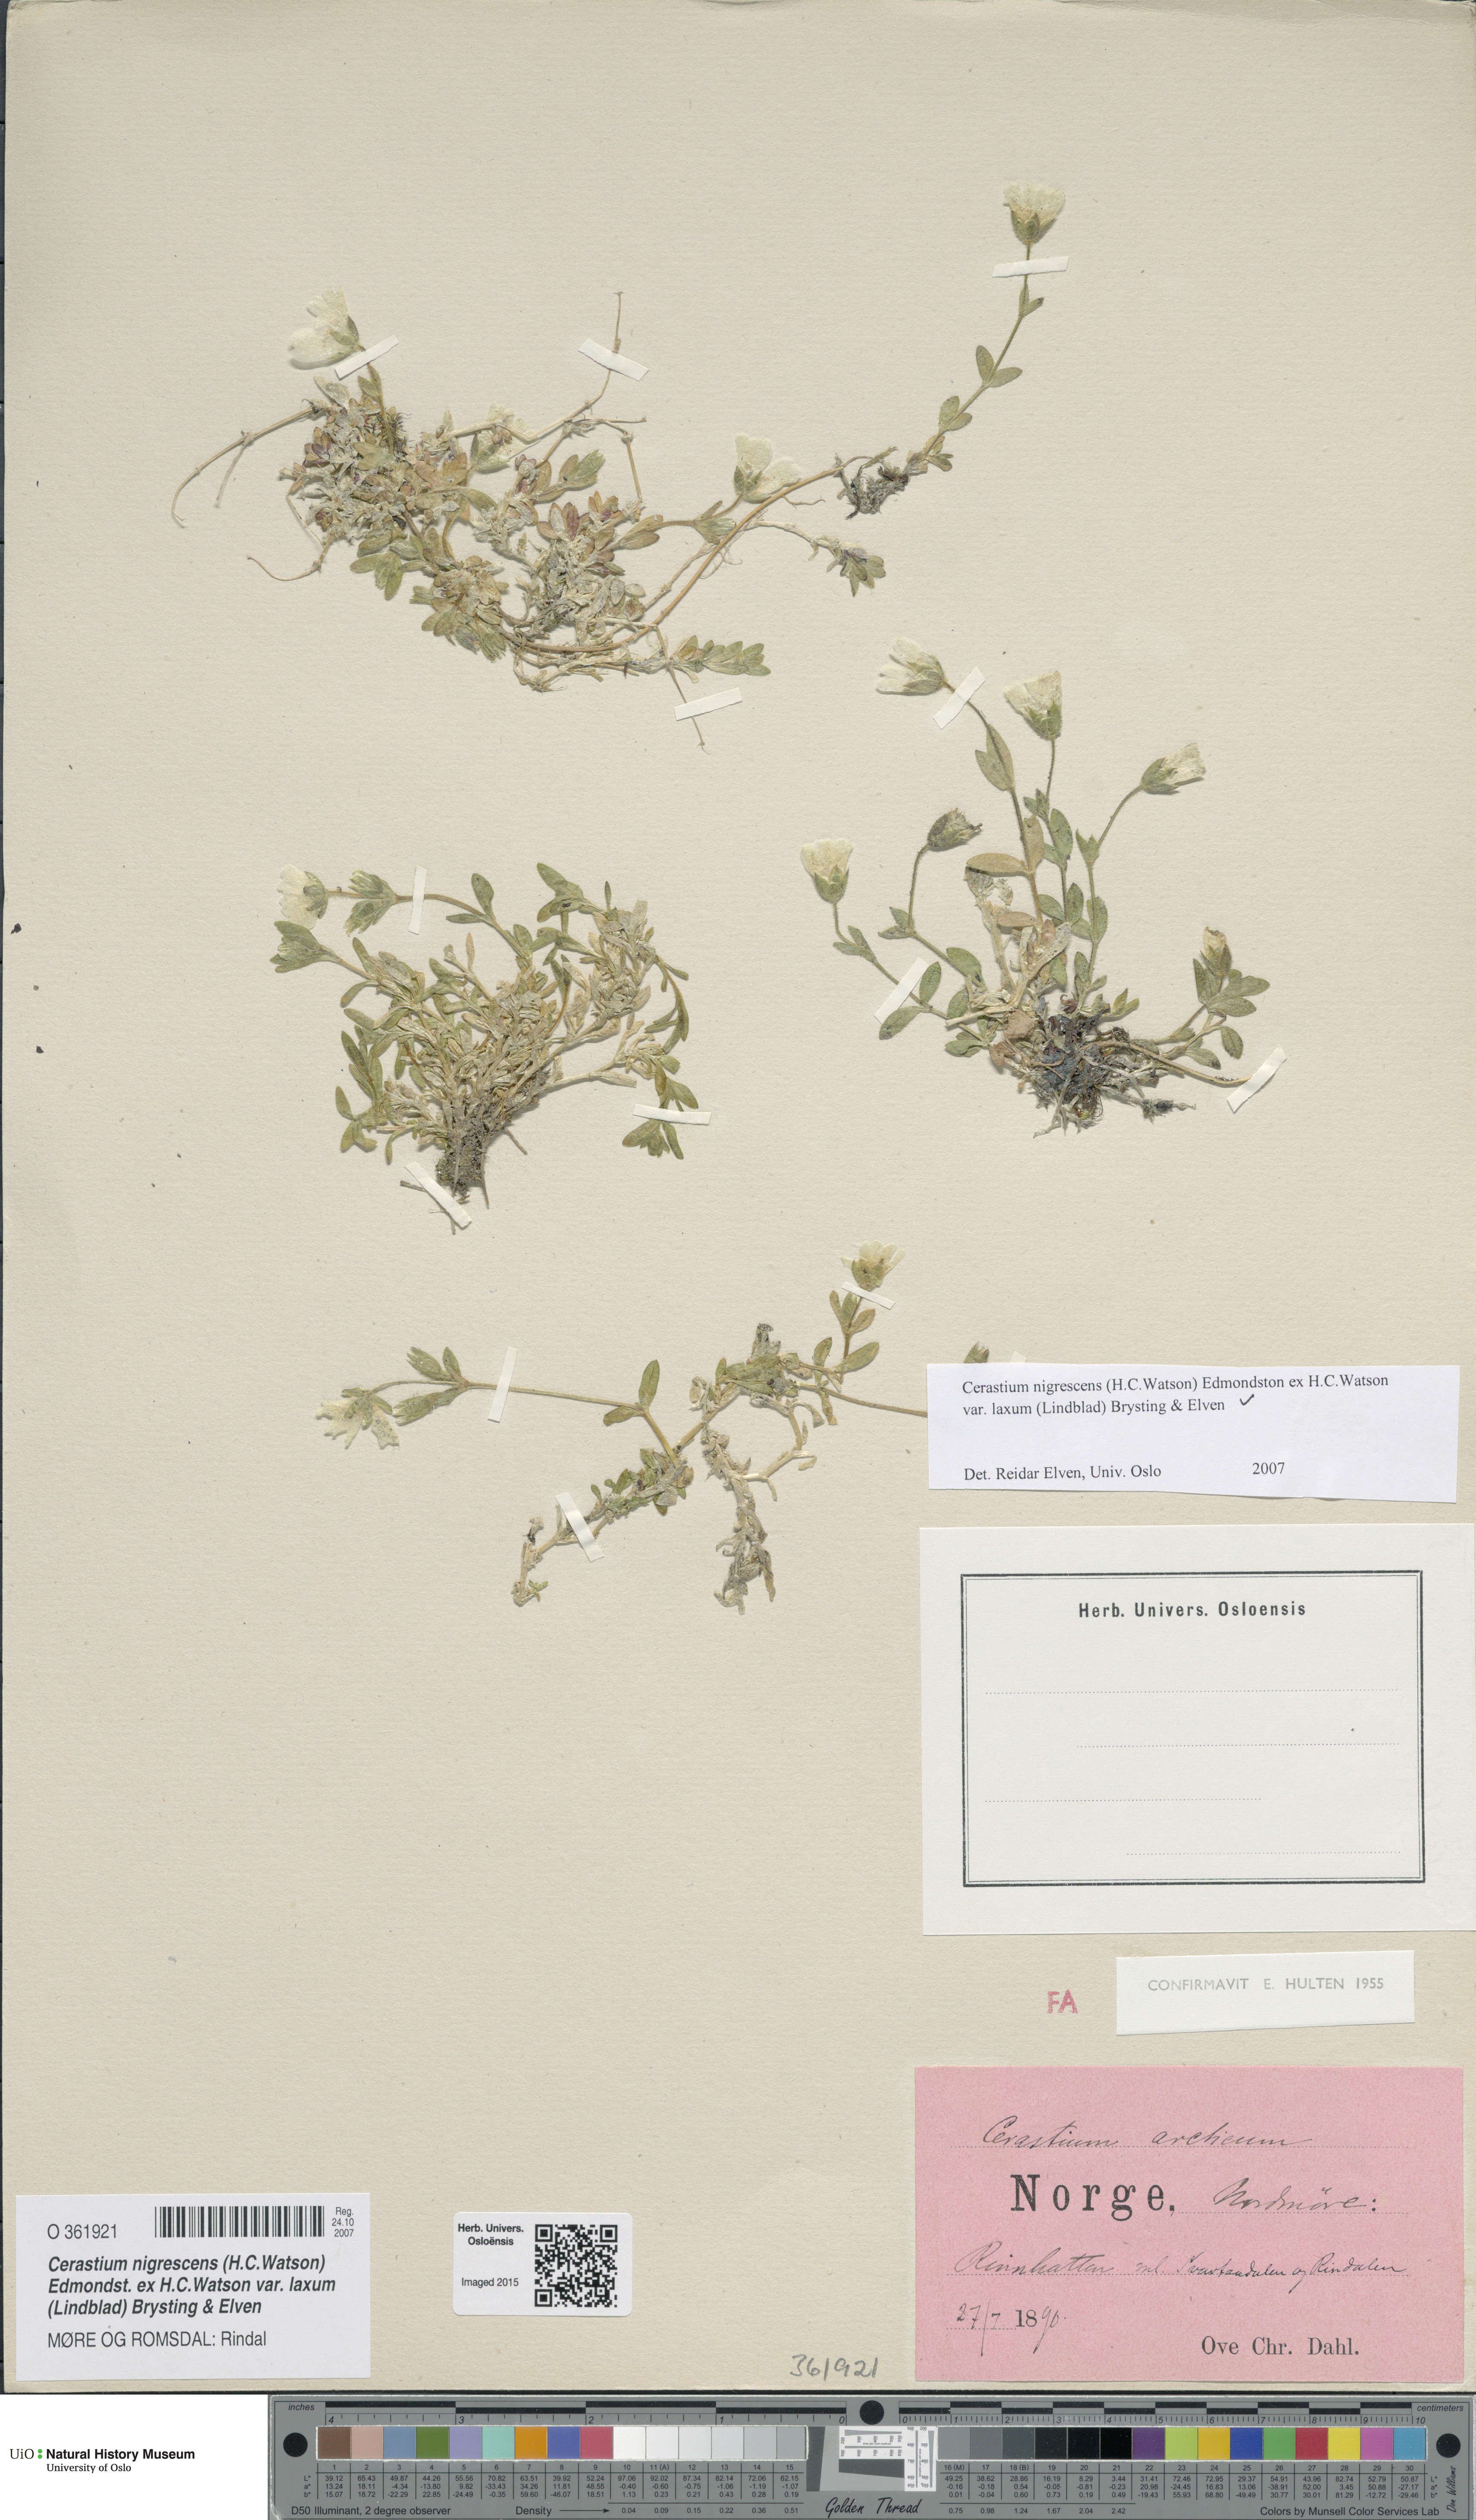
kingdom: Plantae
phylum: Tracheophyta
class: Magnoliopsida
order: Caryophyllales
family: Caryophyllaceae
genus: Cerastium
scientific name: Cerastium nigrescens
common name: Shetland mouse-ear
